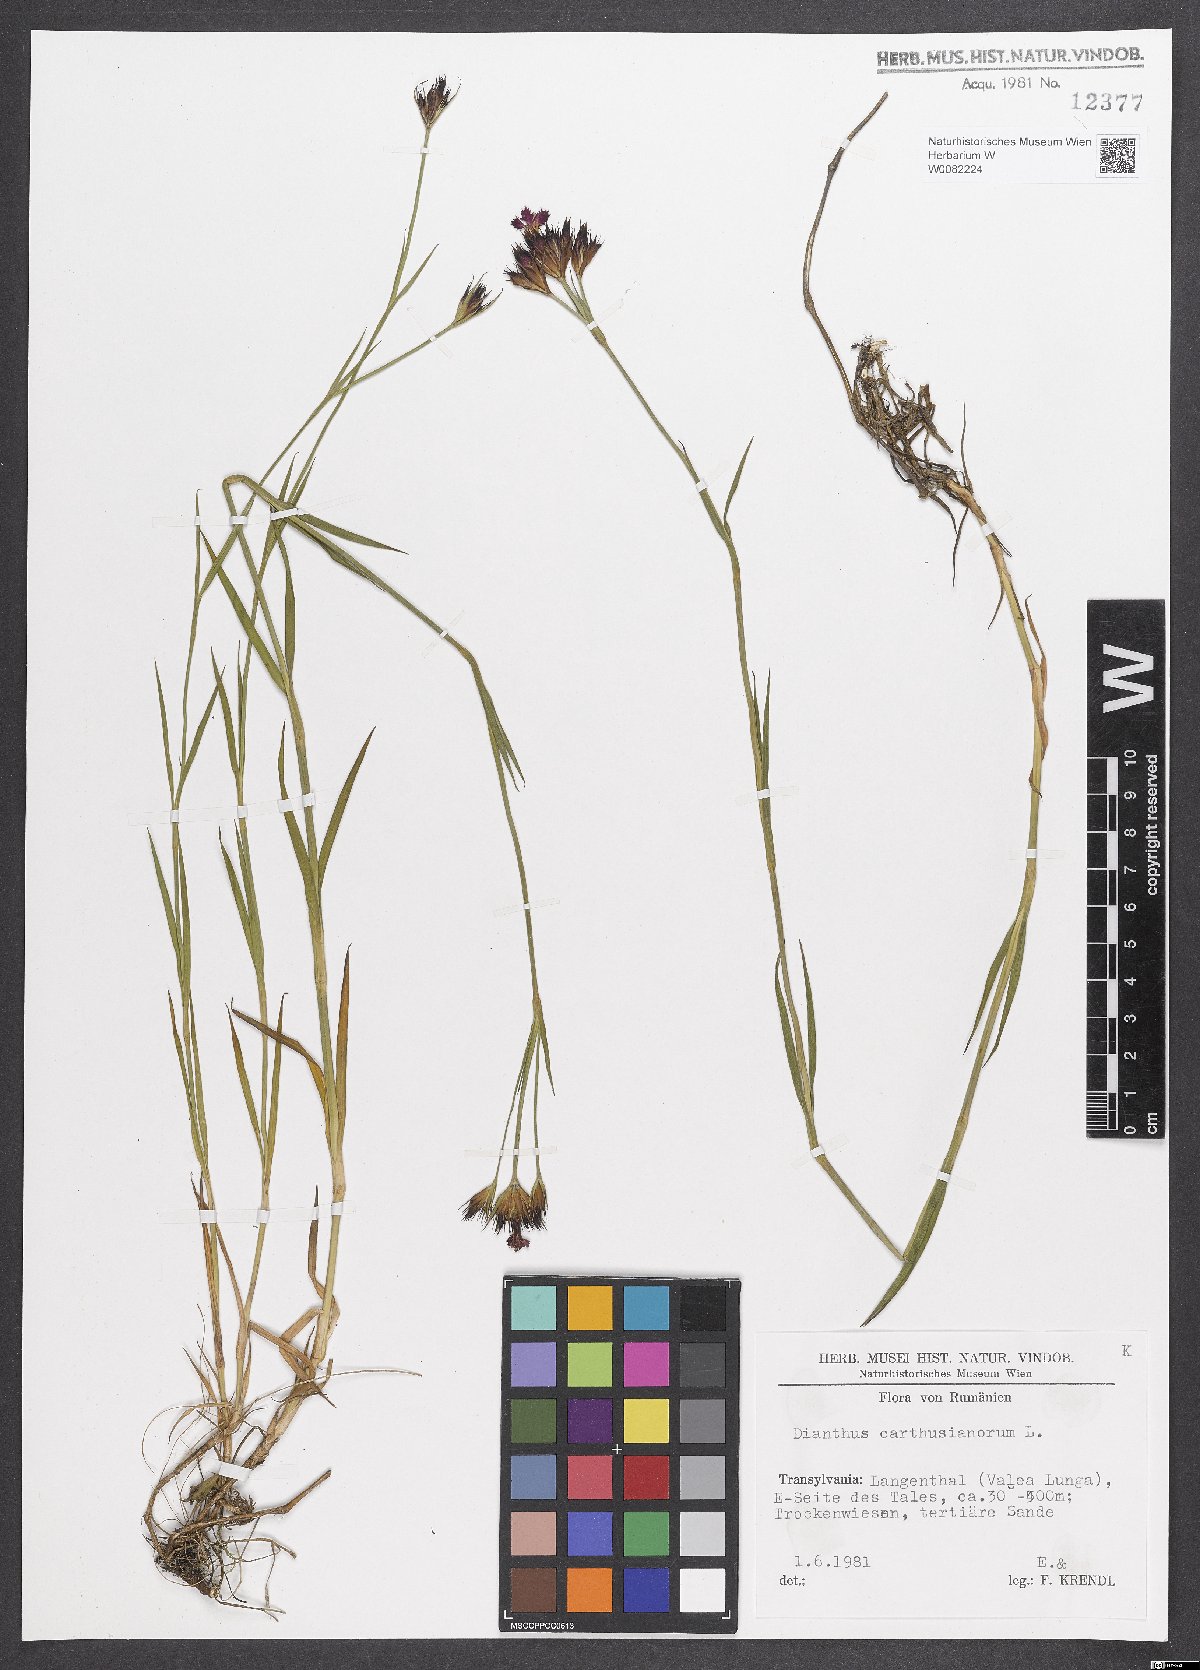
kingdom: Plantae
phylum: Tracheophyta
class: Magnoliopsida
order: Caryophyllales
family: Caryophyllaceae
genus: Dianthus
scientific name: Dianthus carthusianorum
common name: Carthusian pink
